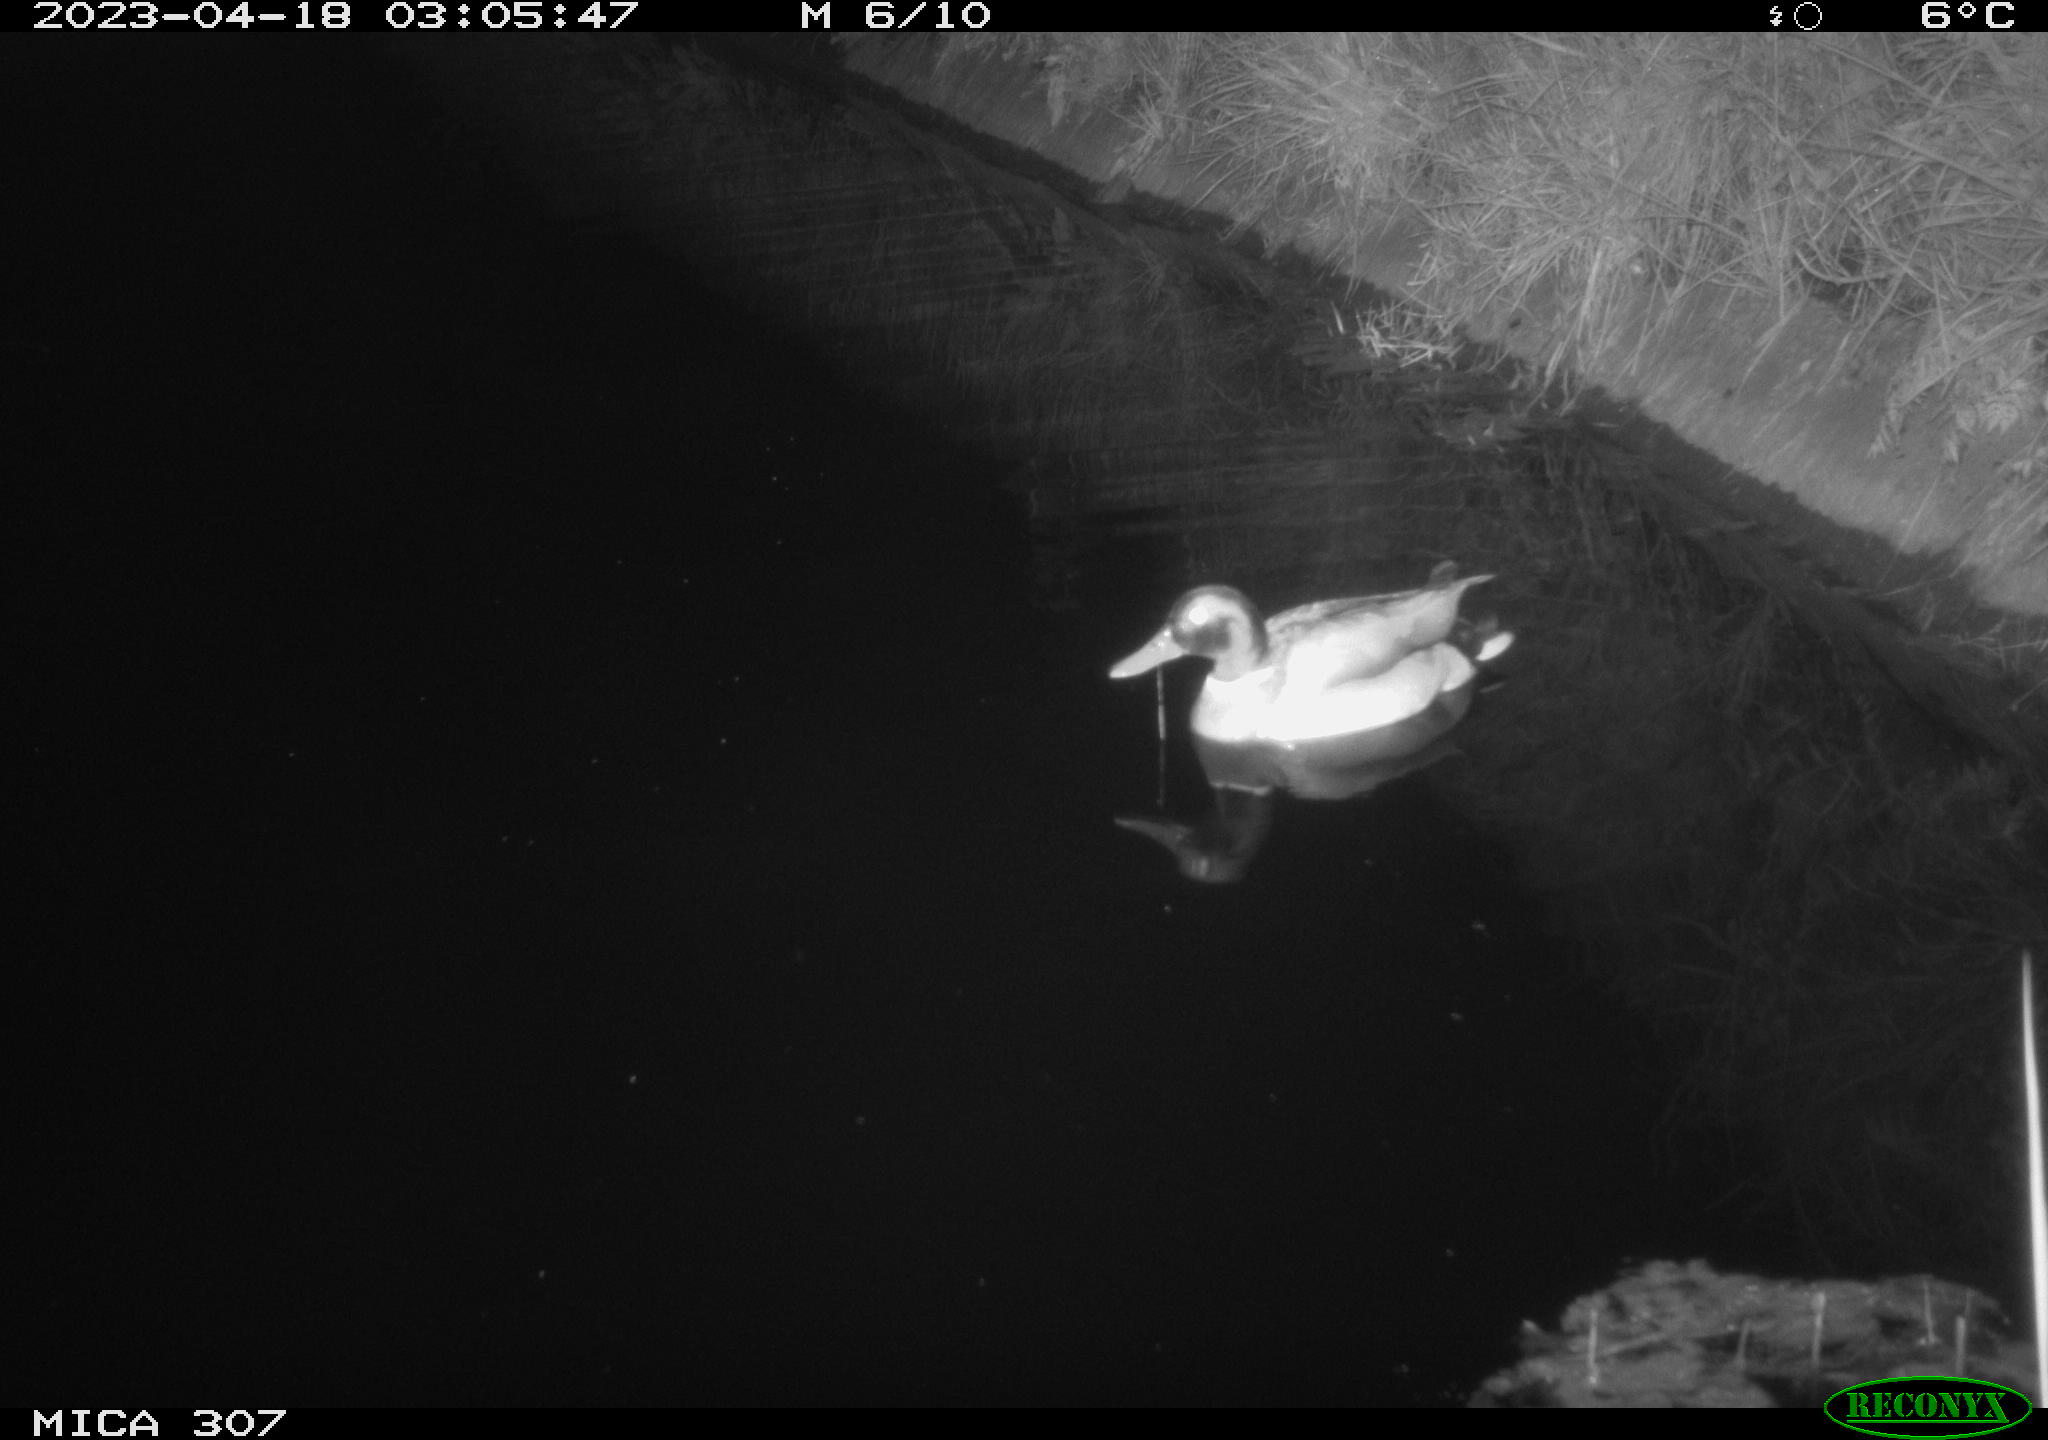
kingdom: Animalia
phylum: Chordata
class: Aves
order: Anseriformes
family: Anatidae
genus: Anas
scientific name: Anas platyrhynchos
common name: Mallard
